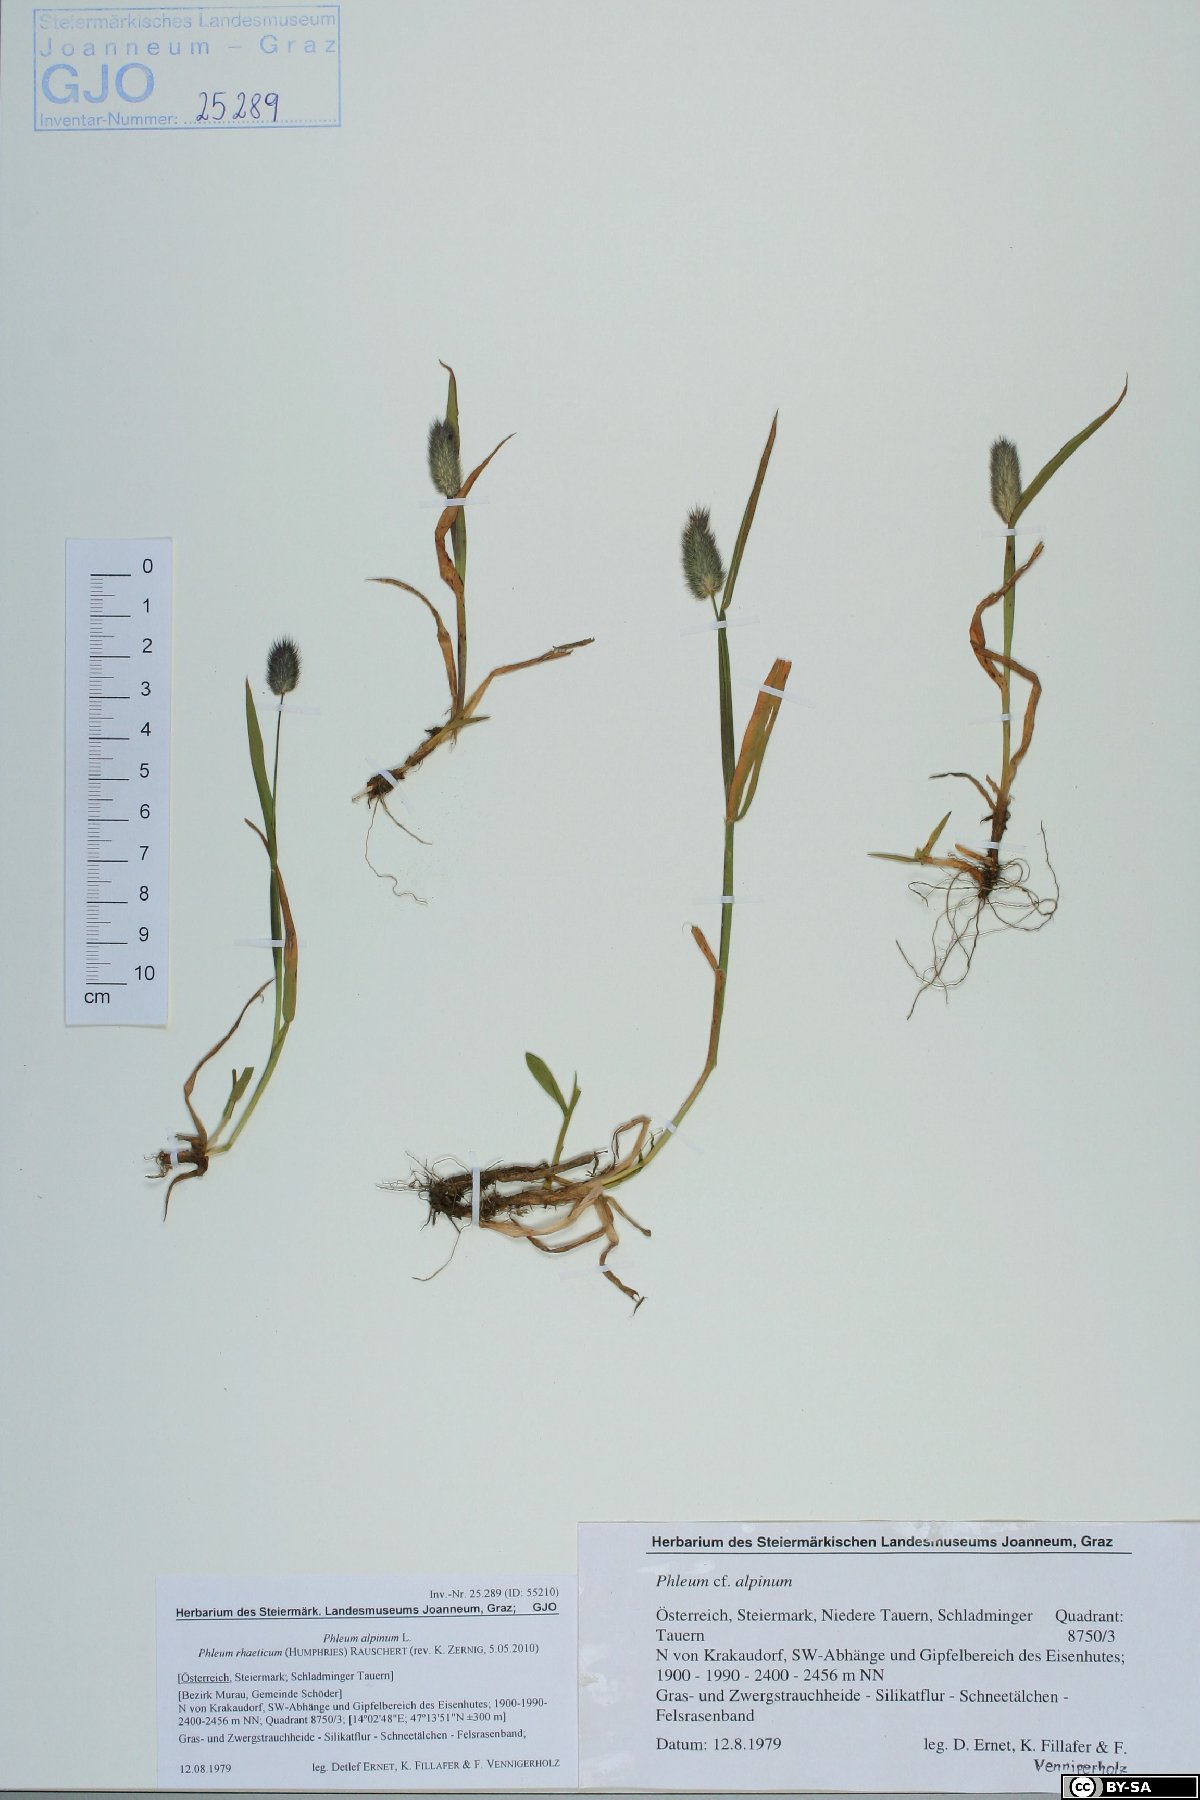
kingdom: Plantae
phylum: Tracheophyta
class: Liliopsida
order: Poales
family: Poaceae
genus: Phleum
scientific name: Phleum alpinum
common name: Alpine cat's-tail
